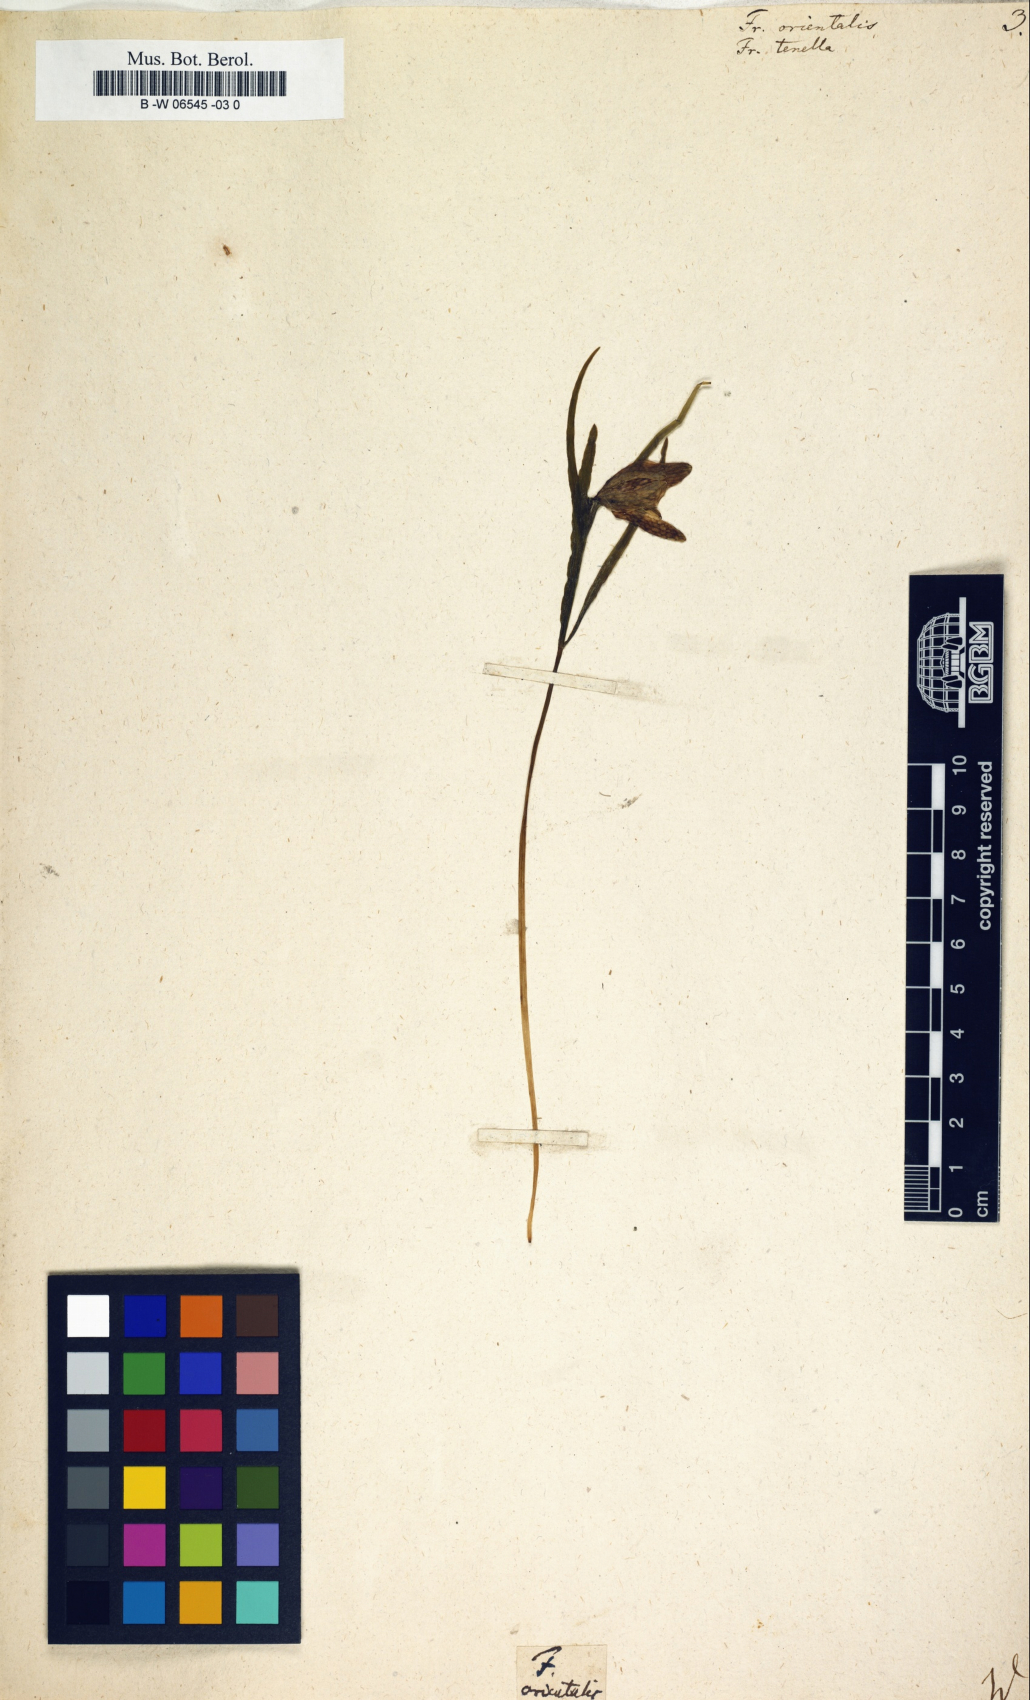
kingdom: Plantae
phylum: Tracheophyta
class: Liliopsida
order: Liliales
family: Liliaceae
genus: Fritillaria
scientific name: Fritillaria orientalis
